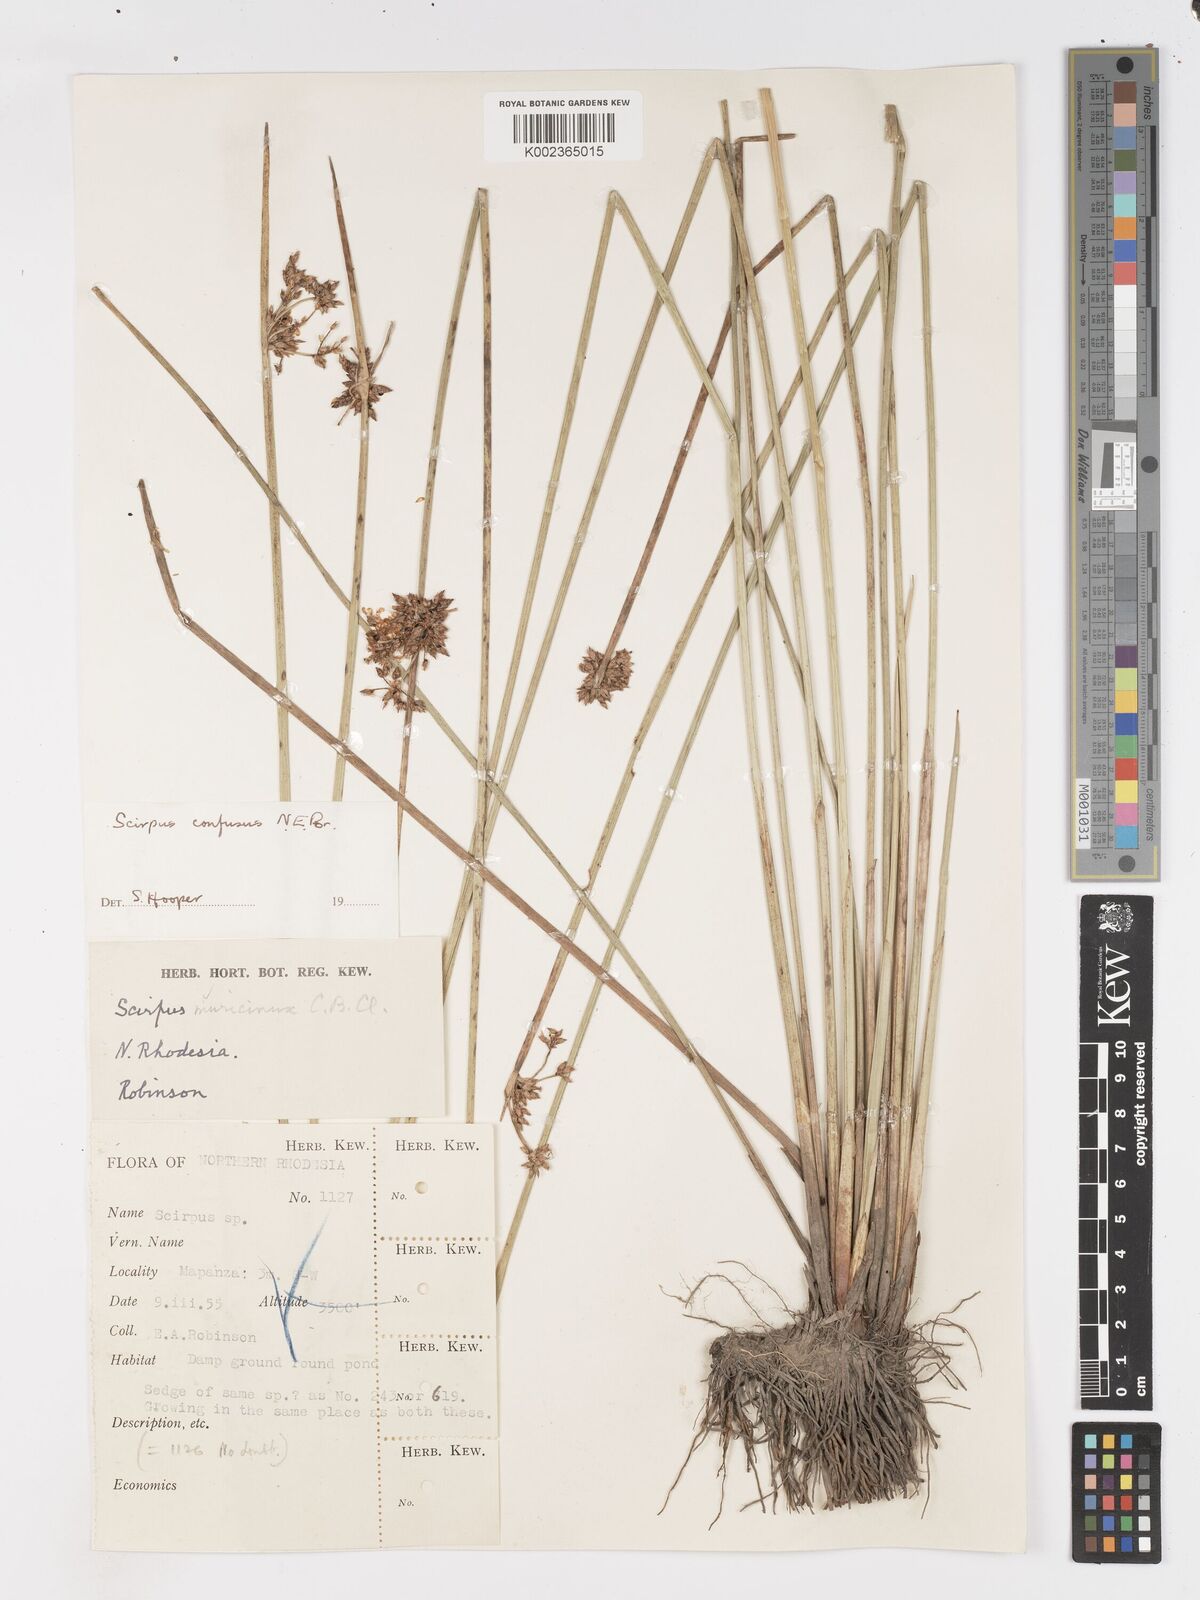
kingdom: Plantae
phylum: Tracheophyta
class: Liliopsida
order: Poales
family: Cyperaceae
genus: Schoenoplectiella
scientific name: Schoenoplectiella confusa
